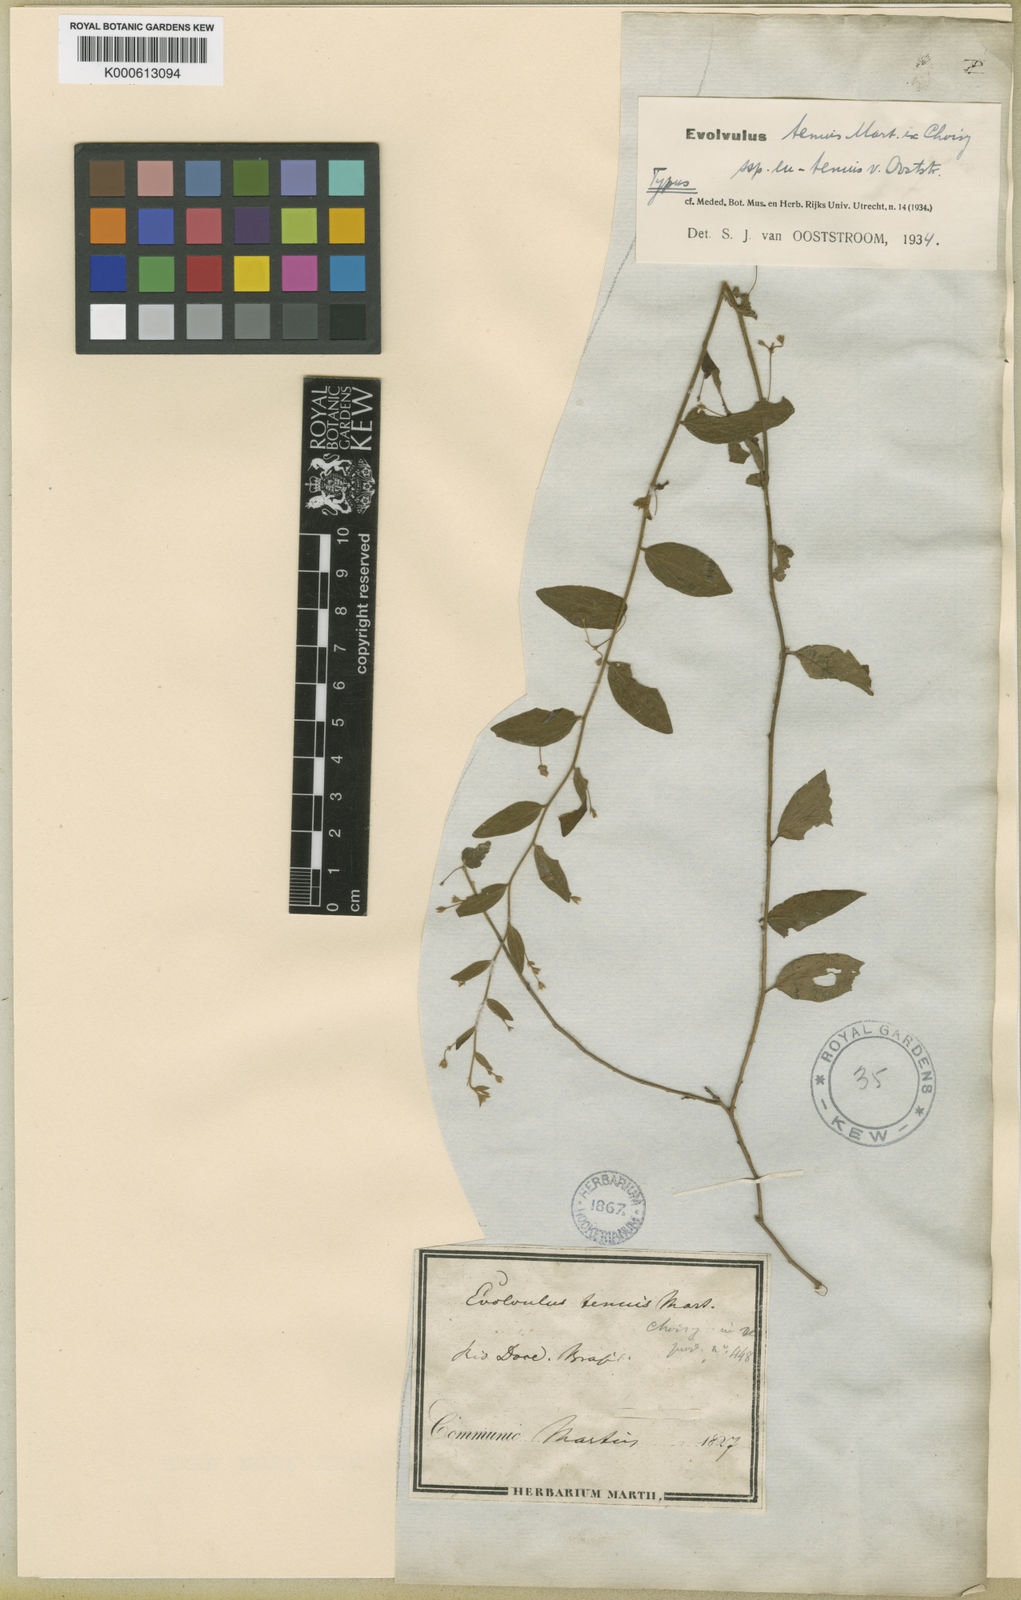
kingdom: Plantae
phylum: Tracheophyta
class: Magnoliopsida
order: Solanales
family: Convolvulaceae
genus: Evolvulus
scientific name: Evolvulus tenuis
